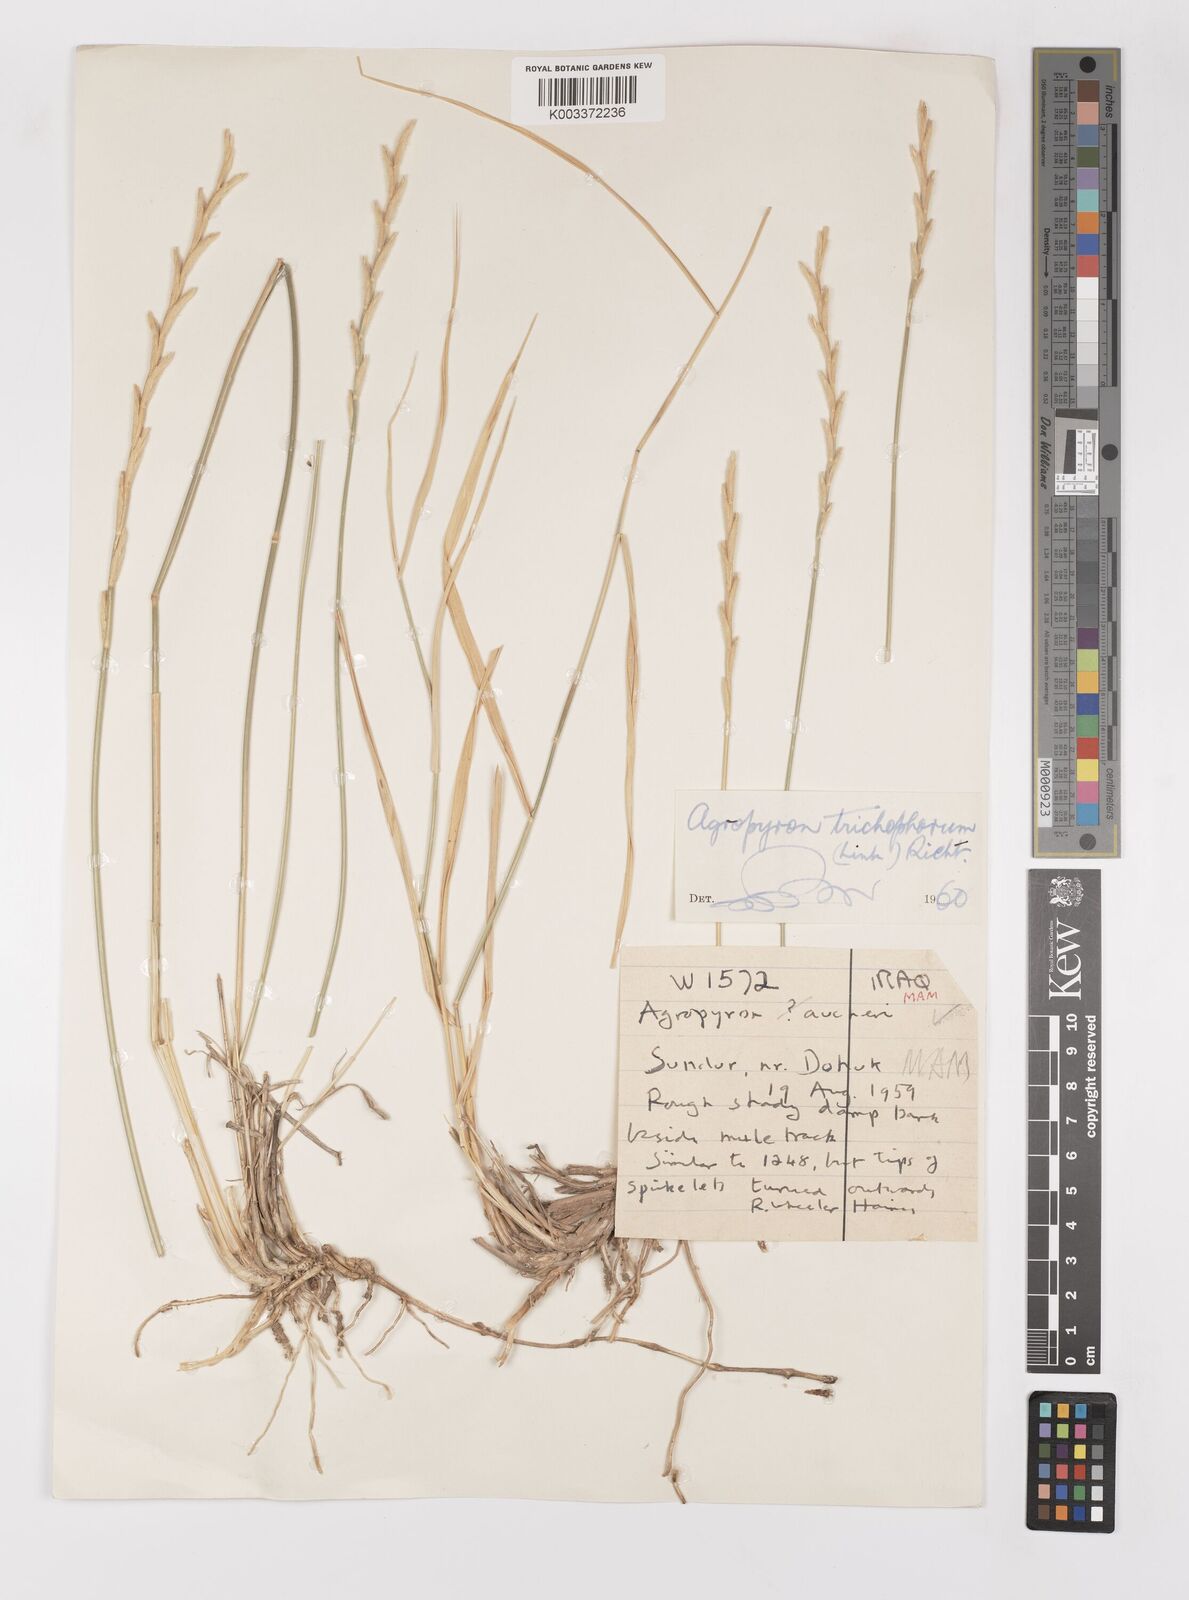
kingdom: Plantae
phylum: Tracheophyta
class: Liliopsida
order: Poales
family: Poaceae
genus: Thinopyrum
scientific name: Thinopyrum intermedium
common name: Intermediate wheatgrass
